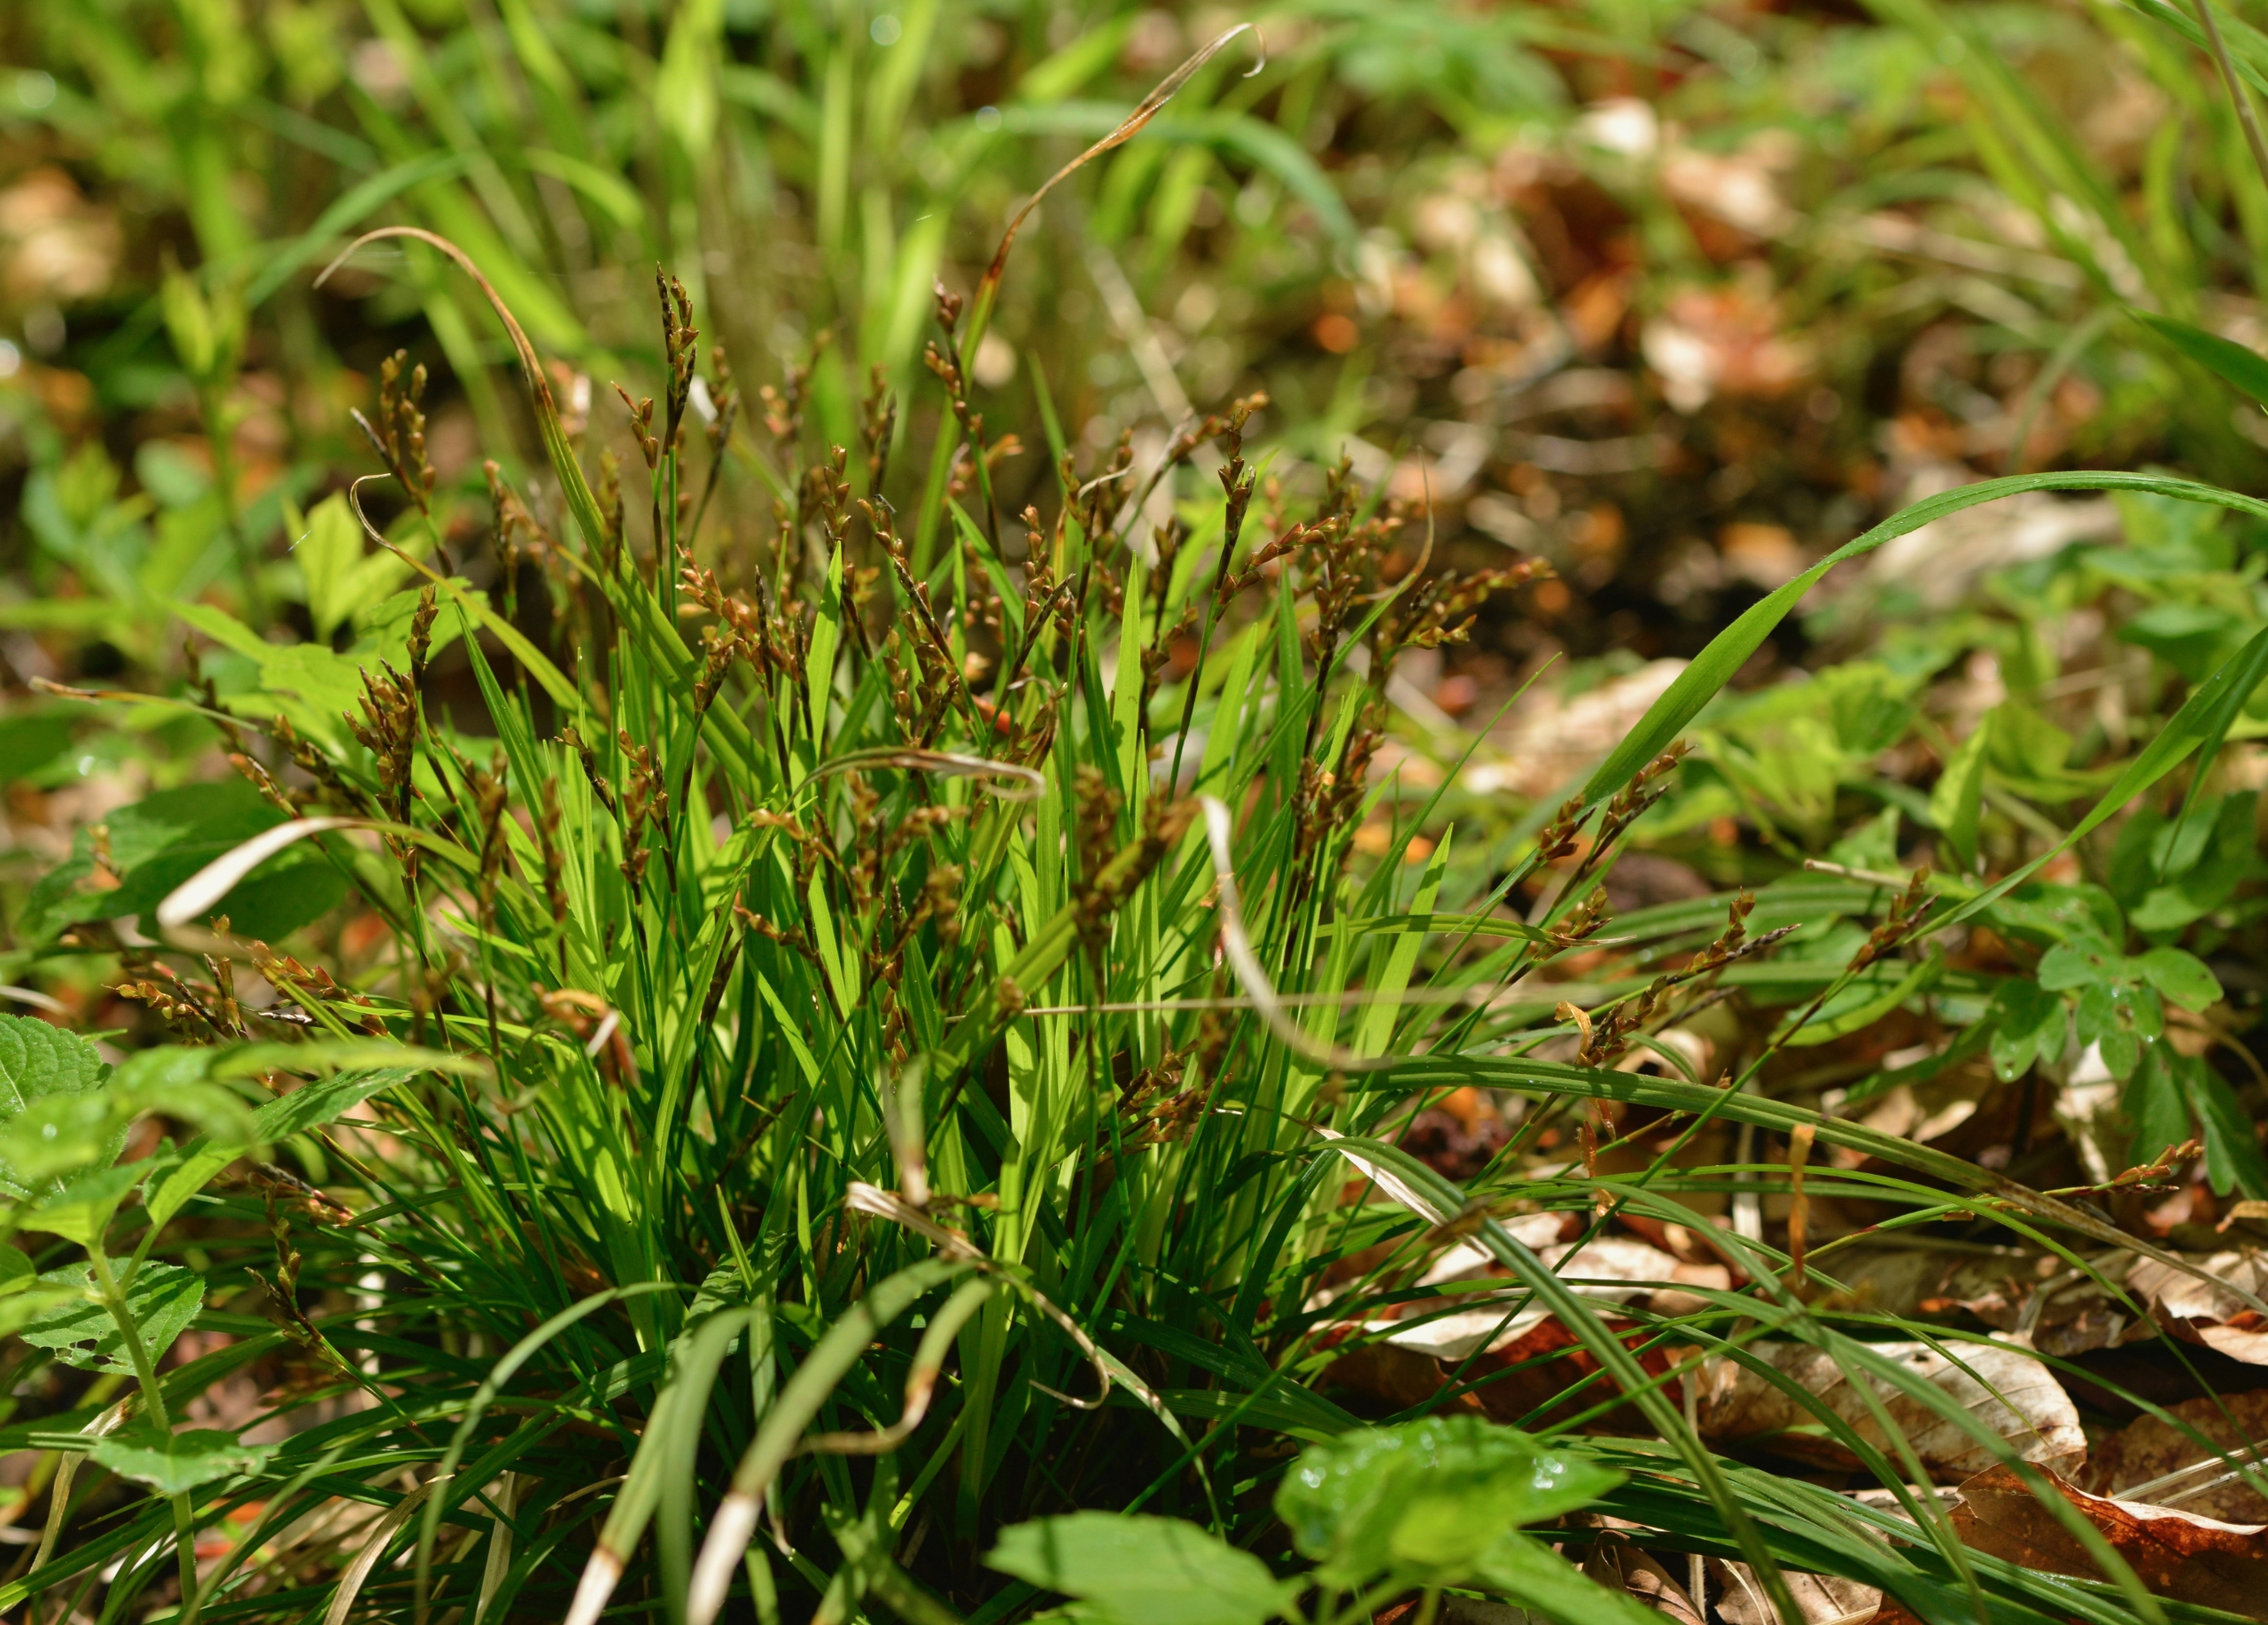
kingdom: Plantae
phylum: Tracheophyta
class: Liliopsida
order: Poales
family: Cyperaceae
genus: Carex
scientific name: Carex digitata
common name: Finger-star
